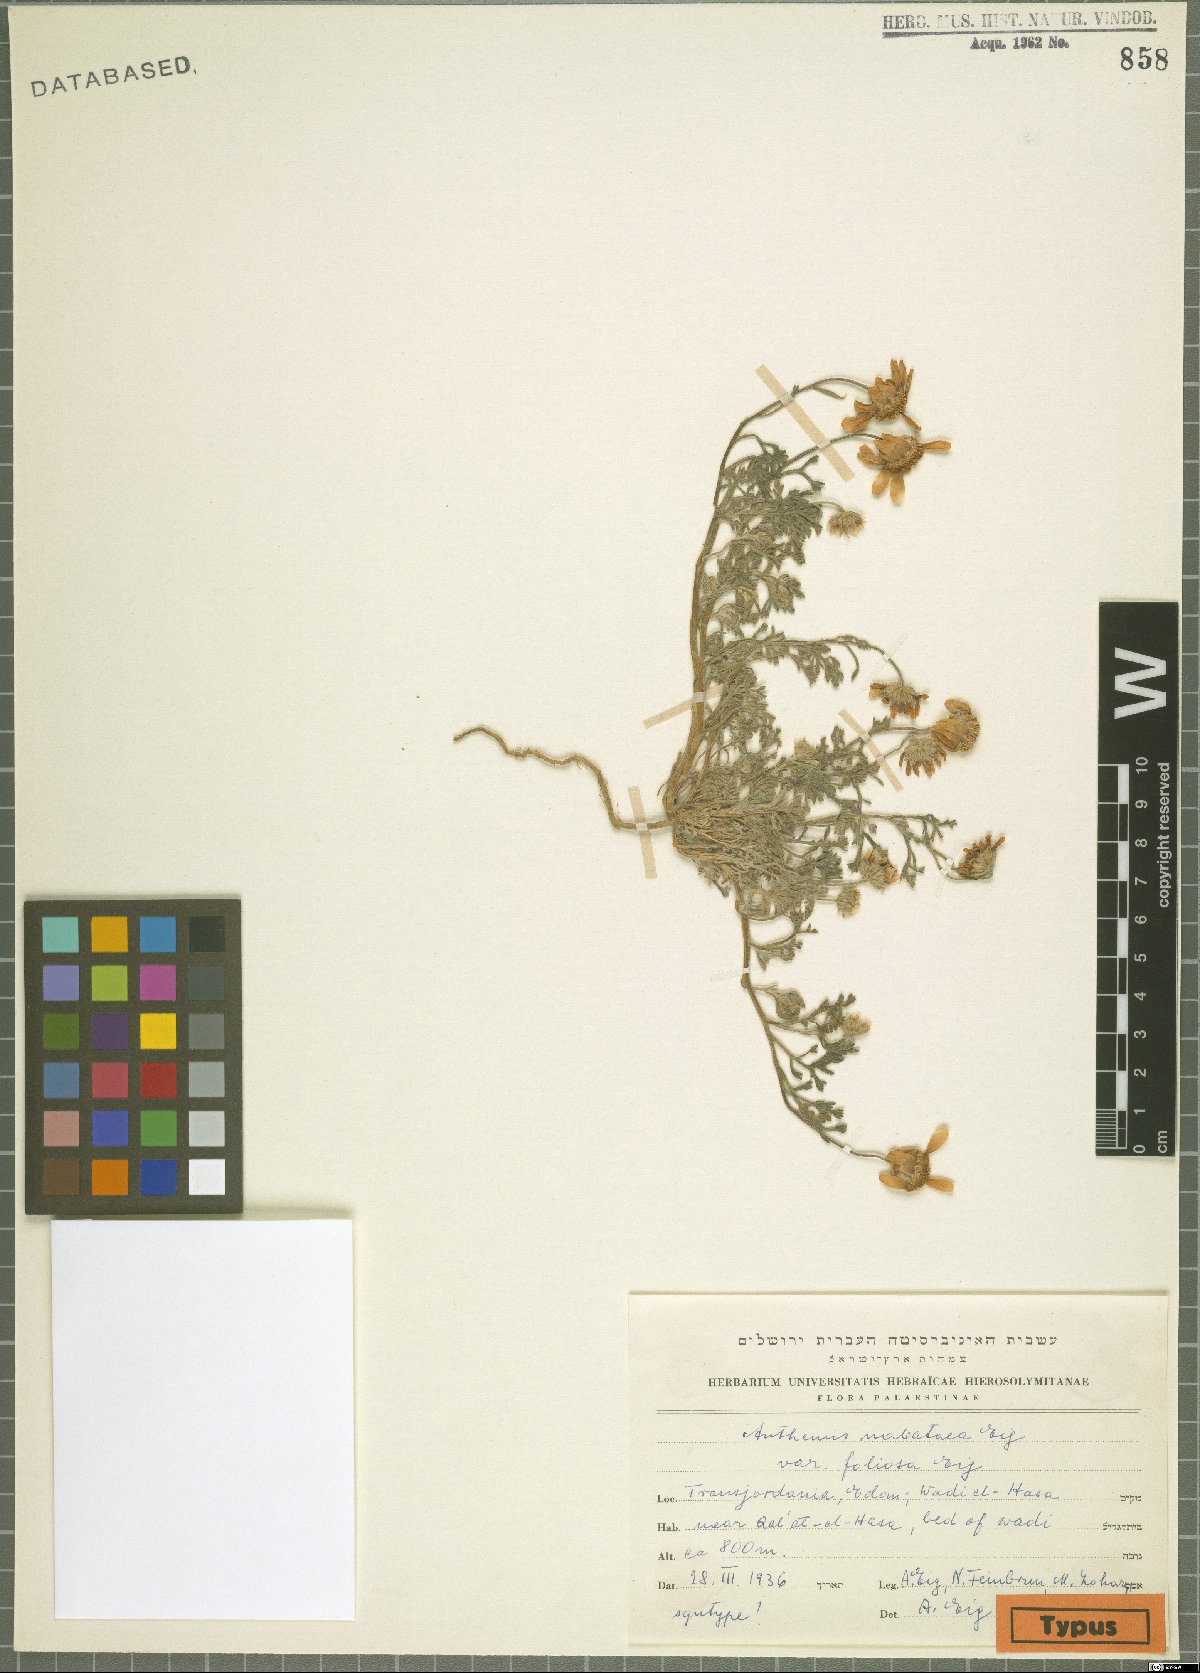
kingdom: Plantae
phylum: Tracheophyta
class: Magnoliopsida
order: Asterales
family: Asteraceae
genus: Anthemis
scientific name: Anthemis nabataea
